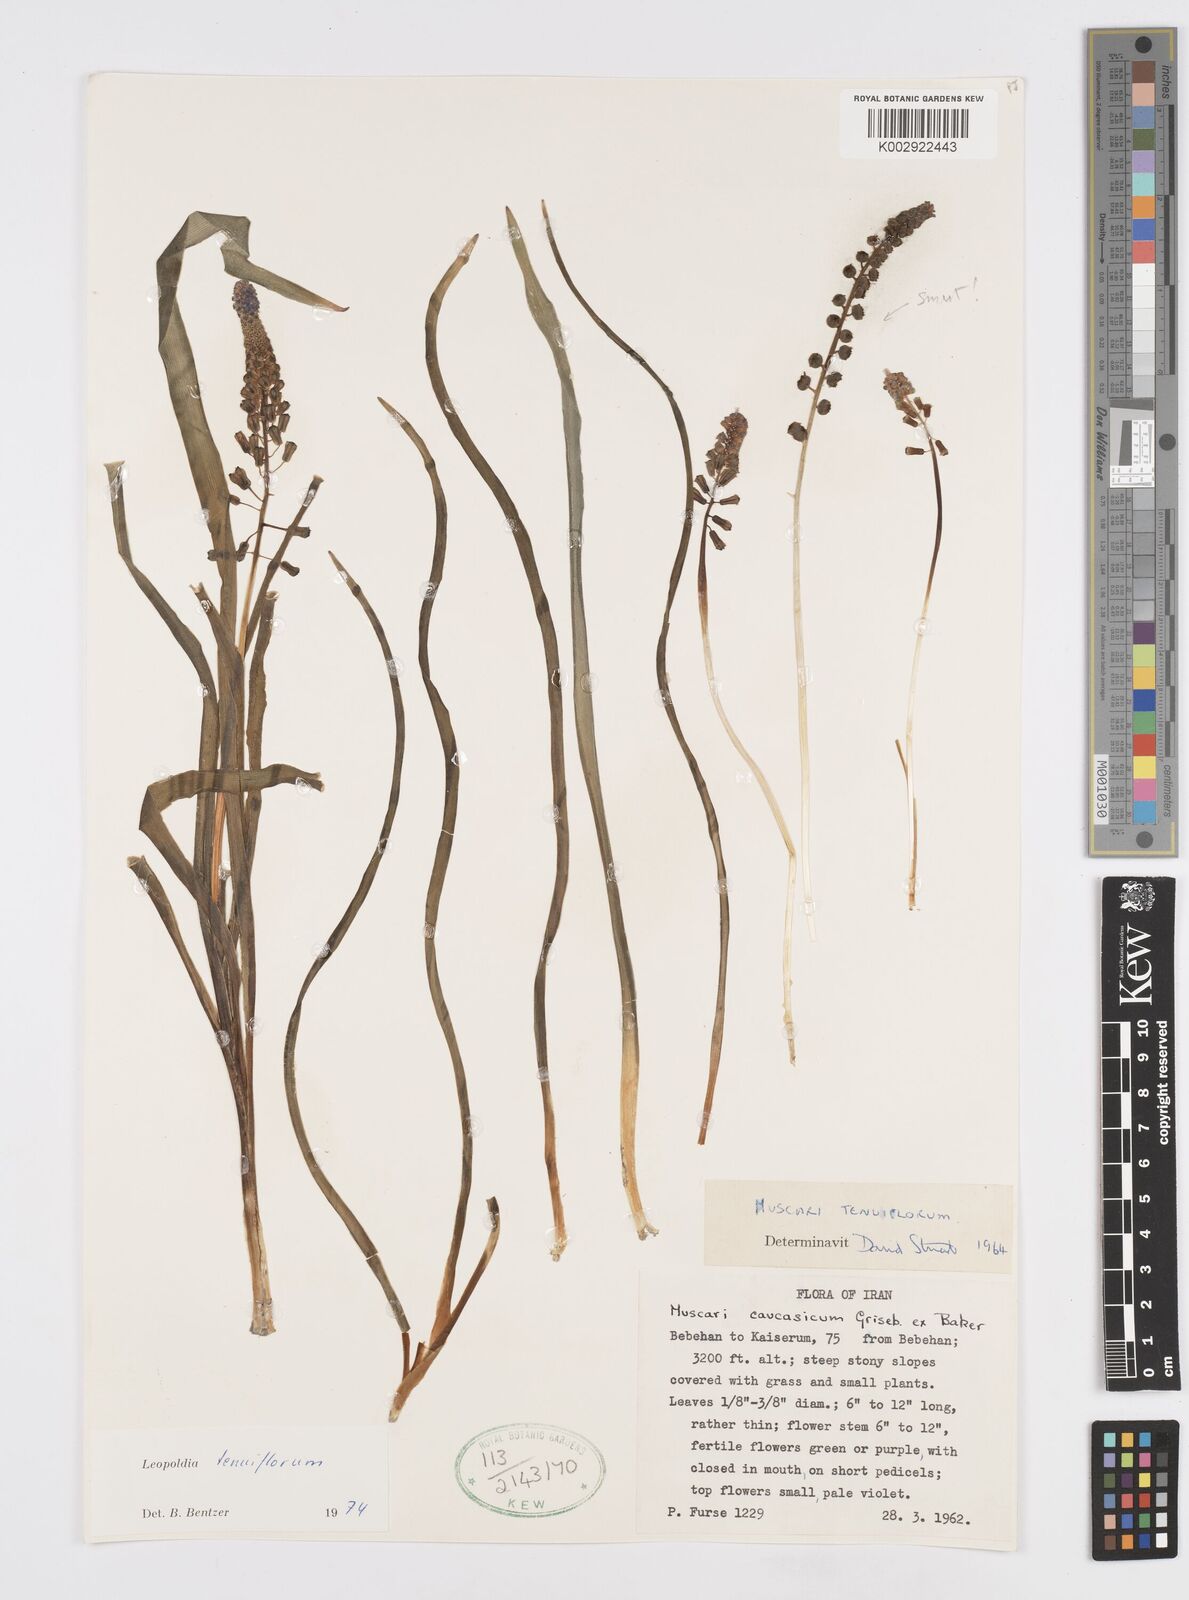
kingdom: Plantae
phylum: Tracheophyta
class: Liliopsida
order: Asparagales
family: Asparagaceae
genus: Muscari
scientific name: Muscari tenuiflorum
